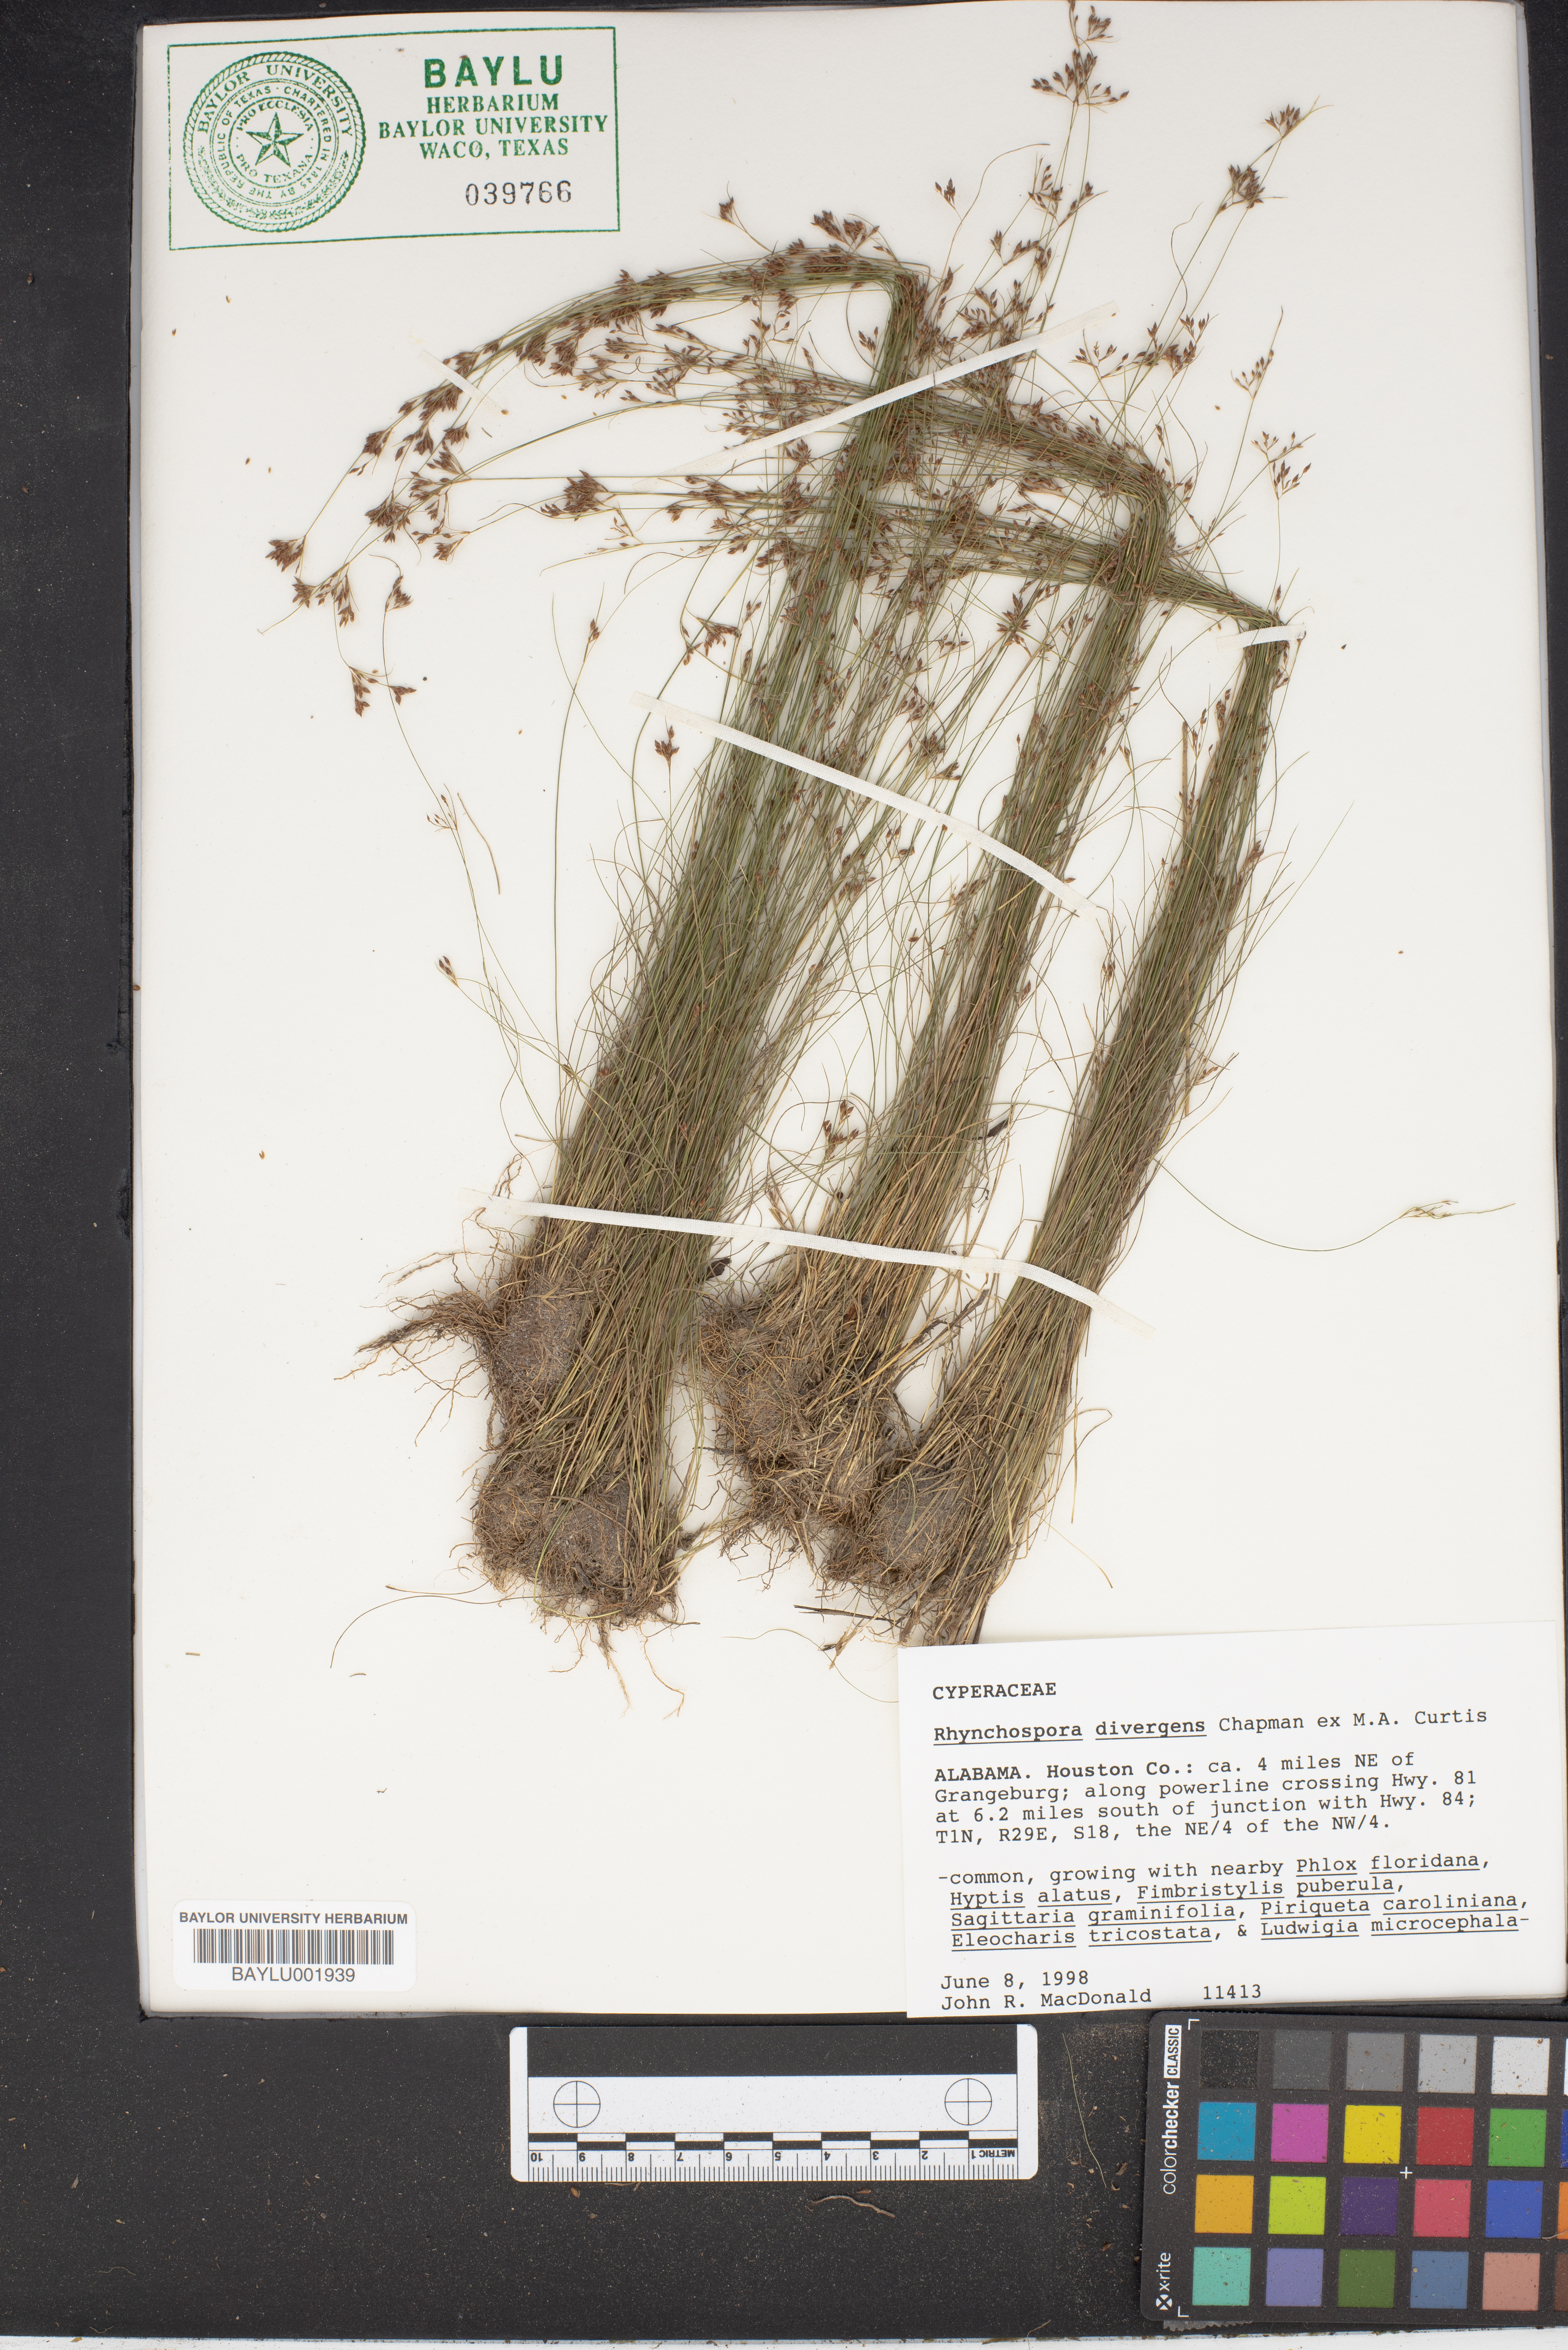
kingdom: Plantae
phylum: Tracheophyta
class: Liliopsida
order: Poales
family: Cyperaceae
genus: Rhynchospora
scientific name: Rhynchospora divergens
